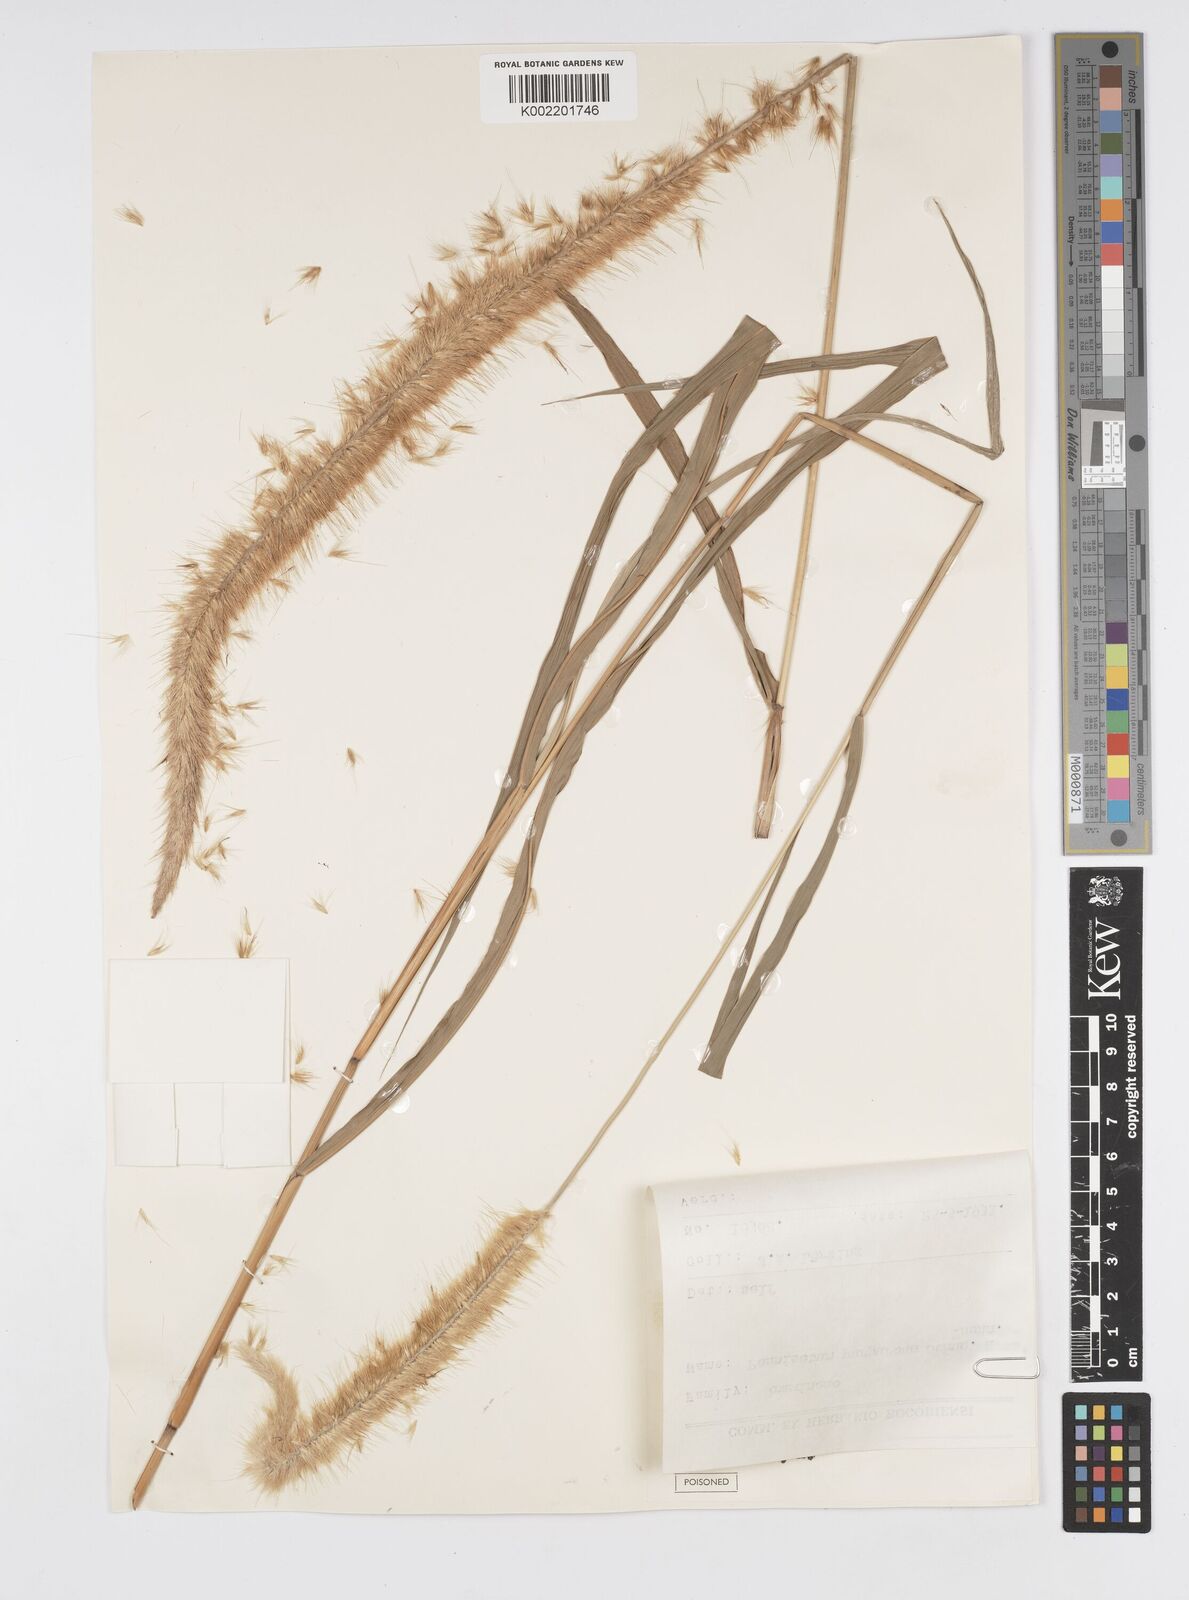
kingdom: Plantae
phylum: Tracheophyta
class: Liliopsida
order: Poales
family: Poaceae
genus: Cenchrus
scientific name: Cenchrus purpureus
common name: Elephant grass
